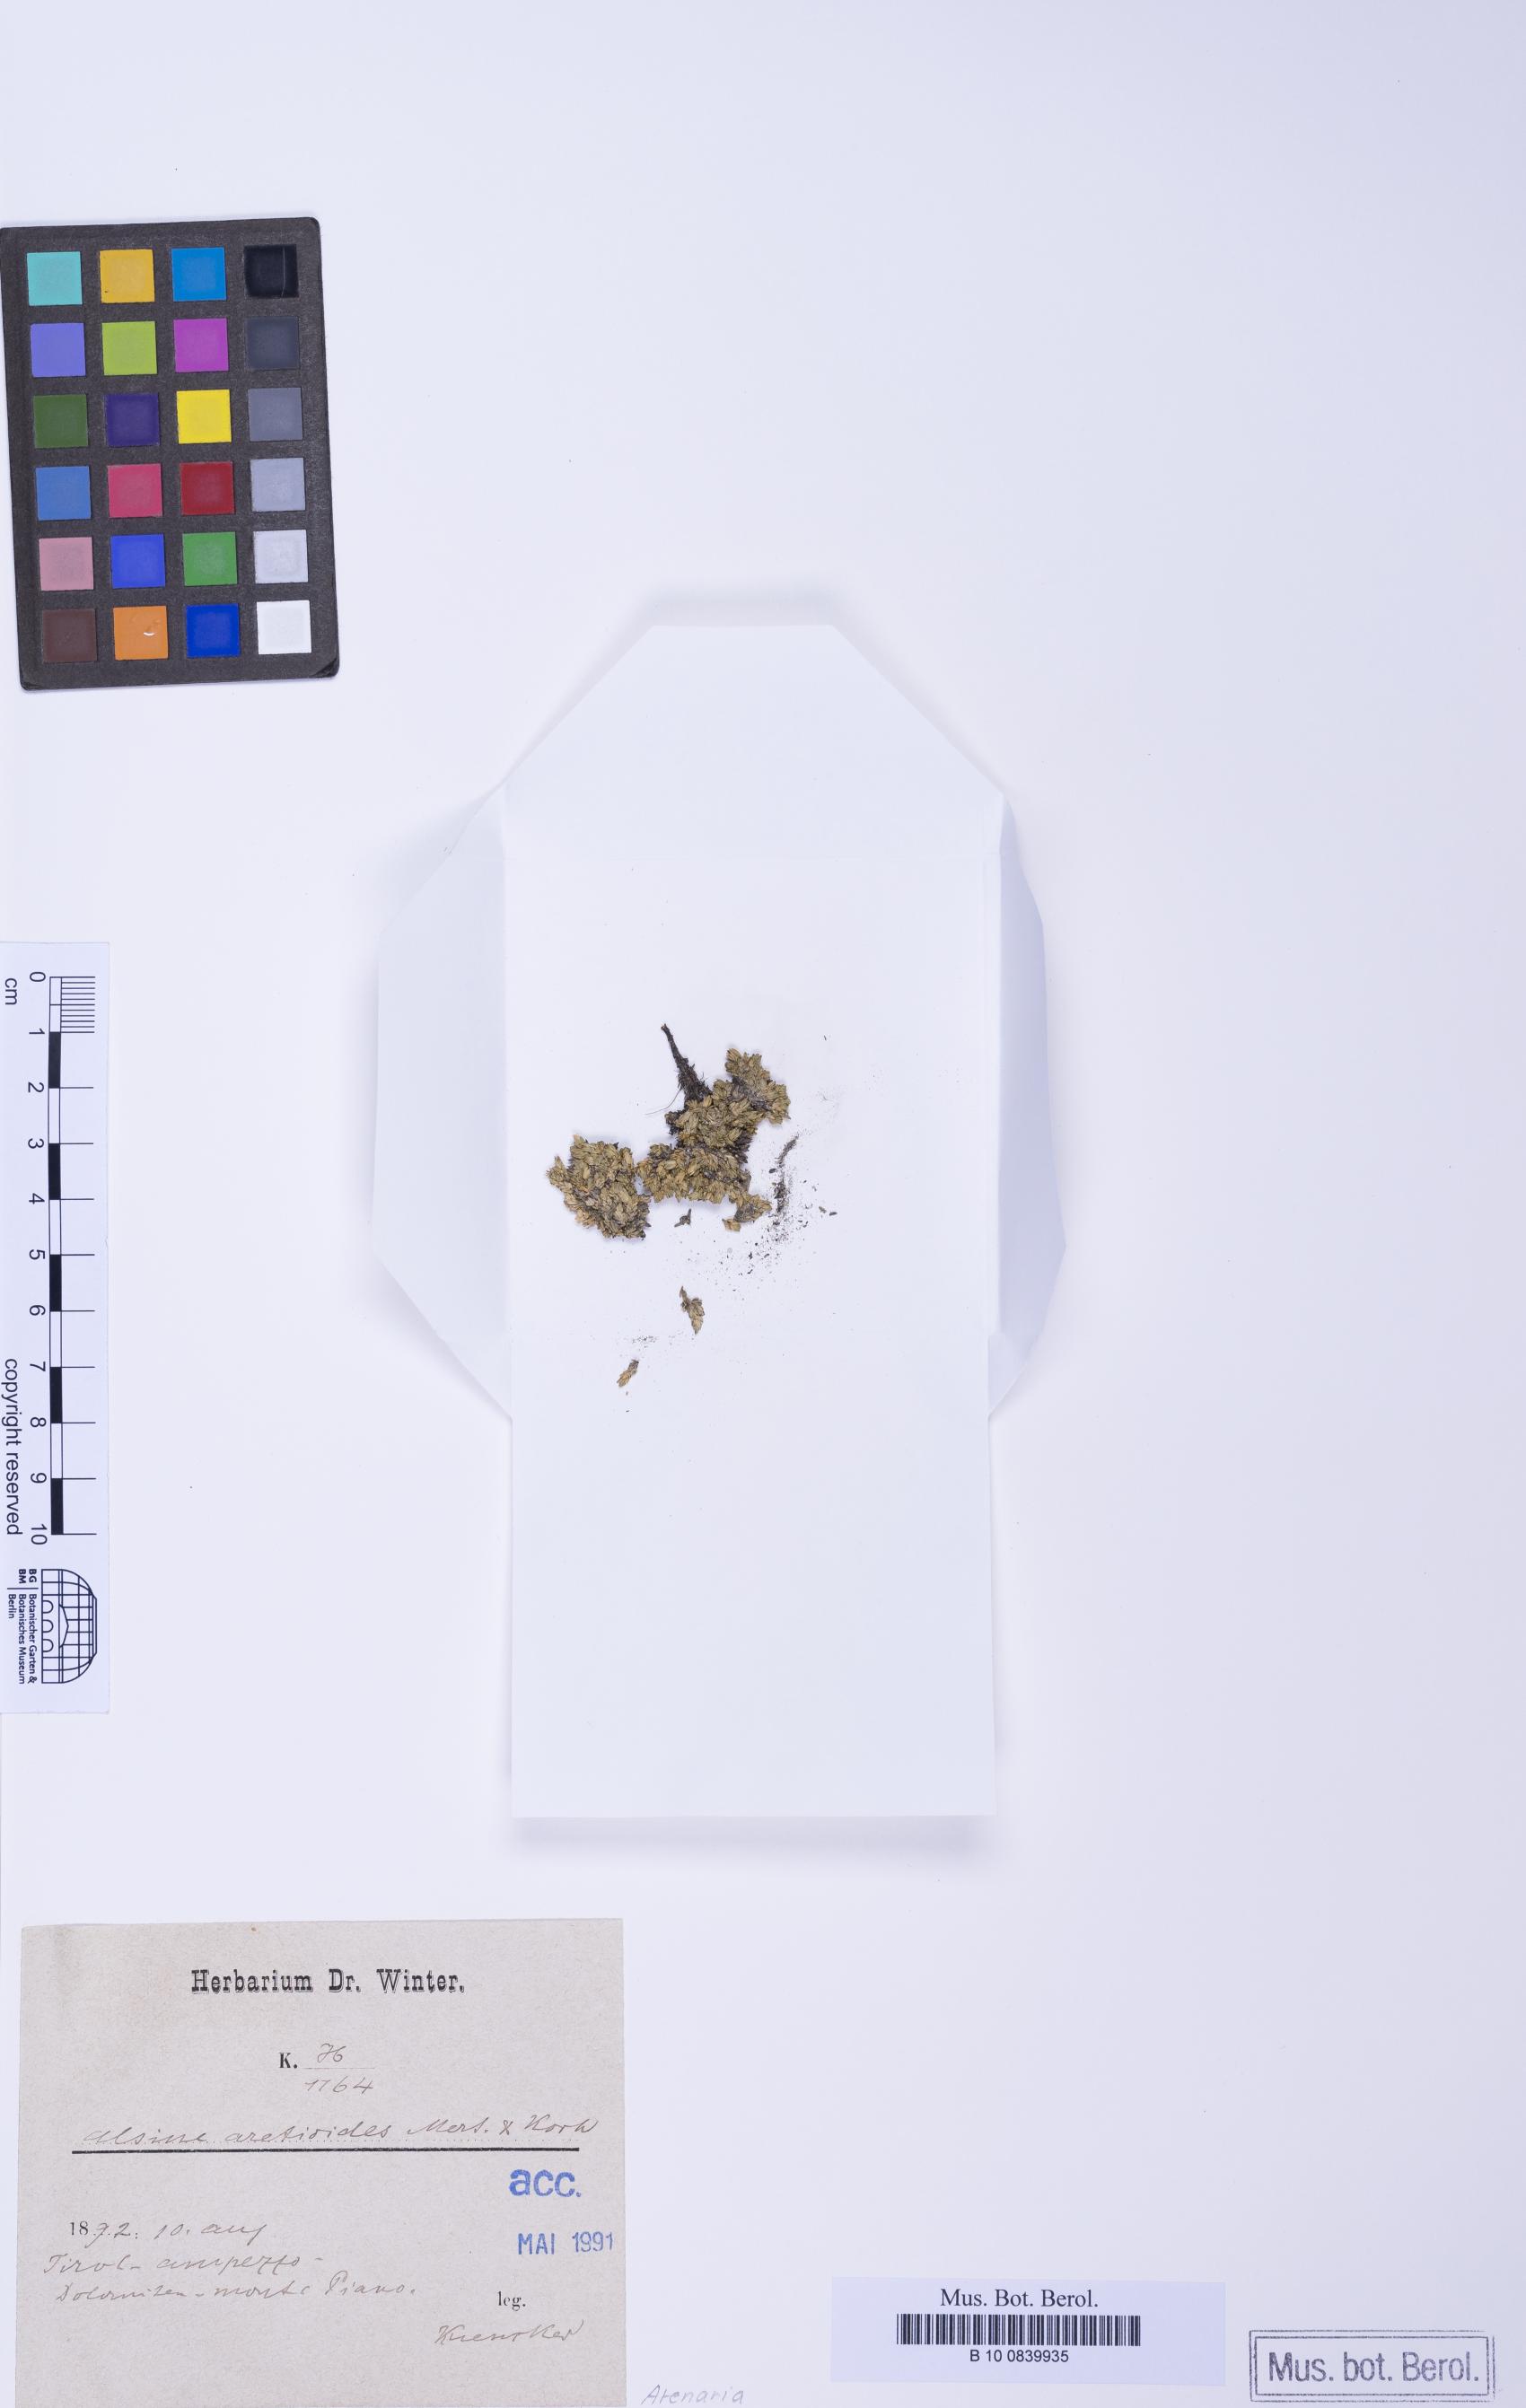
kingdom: Plantae
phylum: Tracheophyta
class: Magnoliopsida
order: Caryophyllales
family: Caryophyllaceae
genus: Facchinia
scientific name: Facchinia cherlerioides
